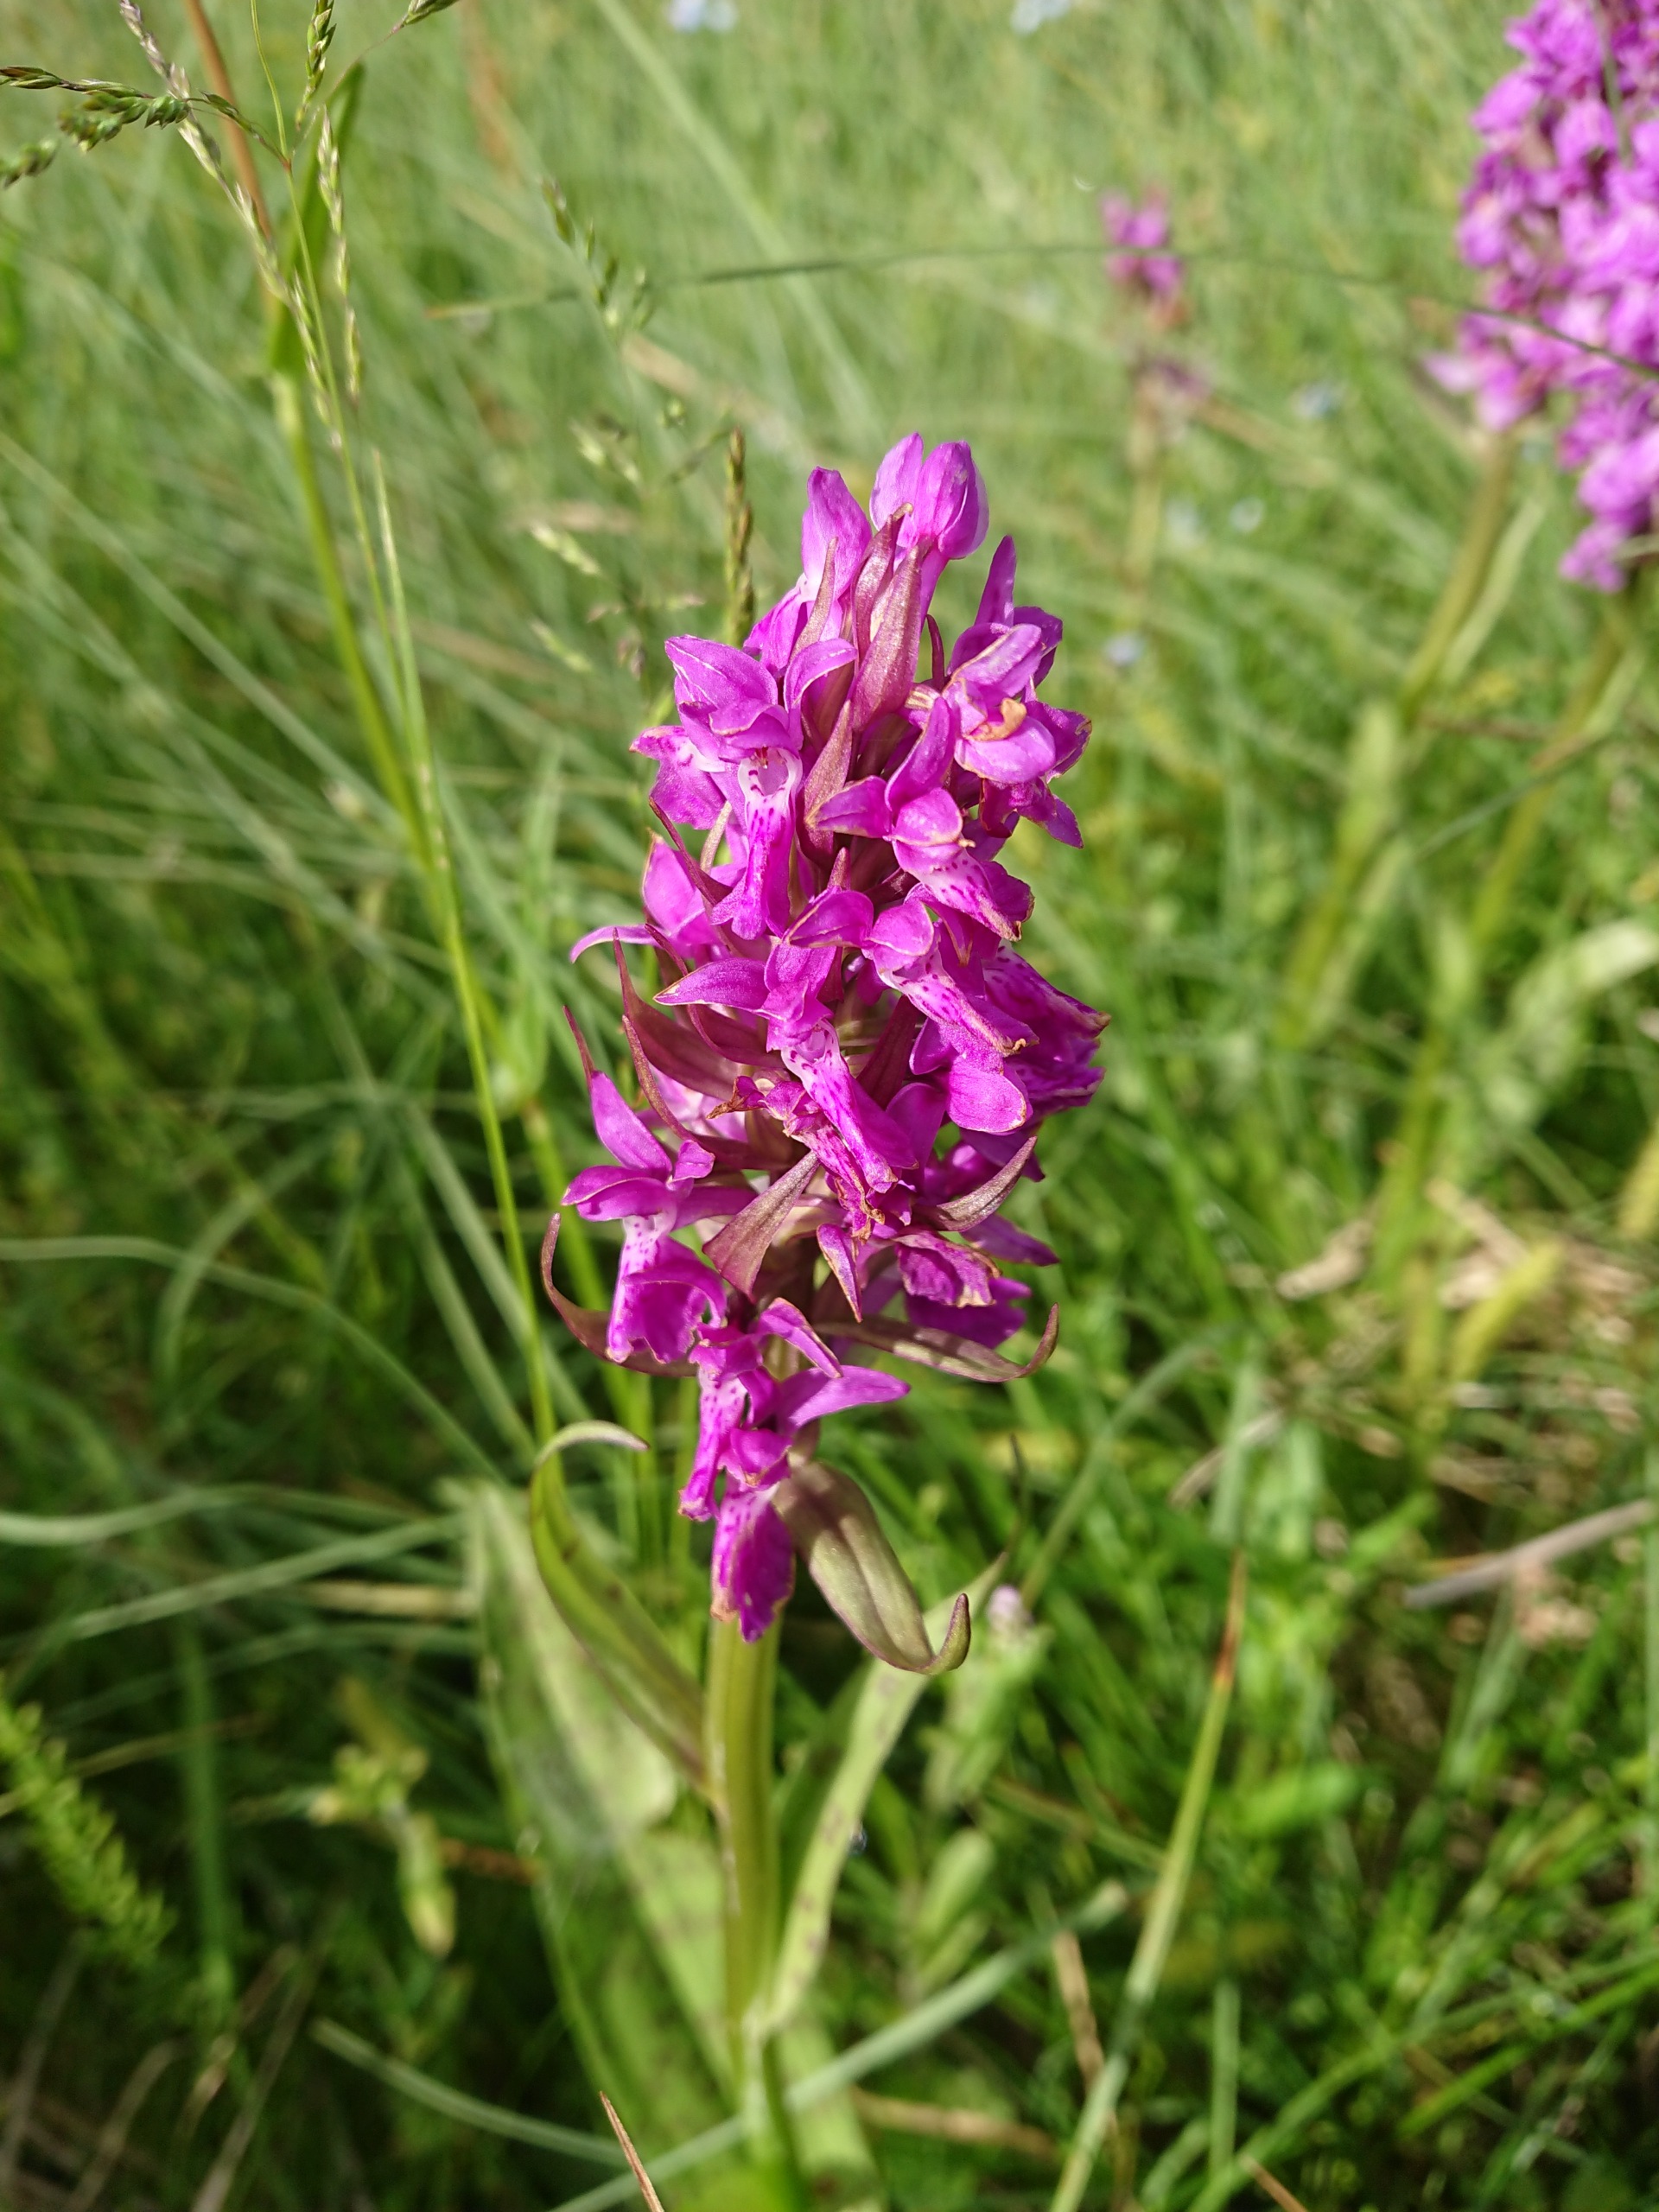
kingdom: Plantae
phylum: Tracheophyta
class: Liliopsida
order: Asparagales
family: Orchidaceae
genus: Dactylorhiza
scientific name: Dactylorhiza majalis
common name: Maj-gøgeurt
